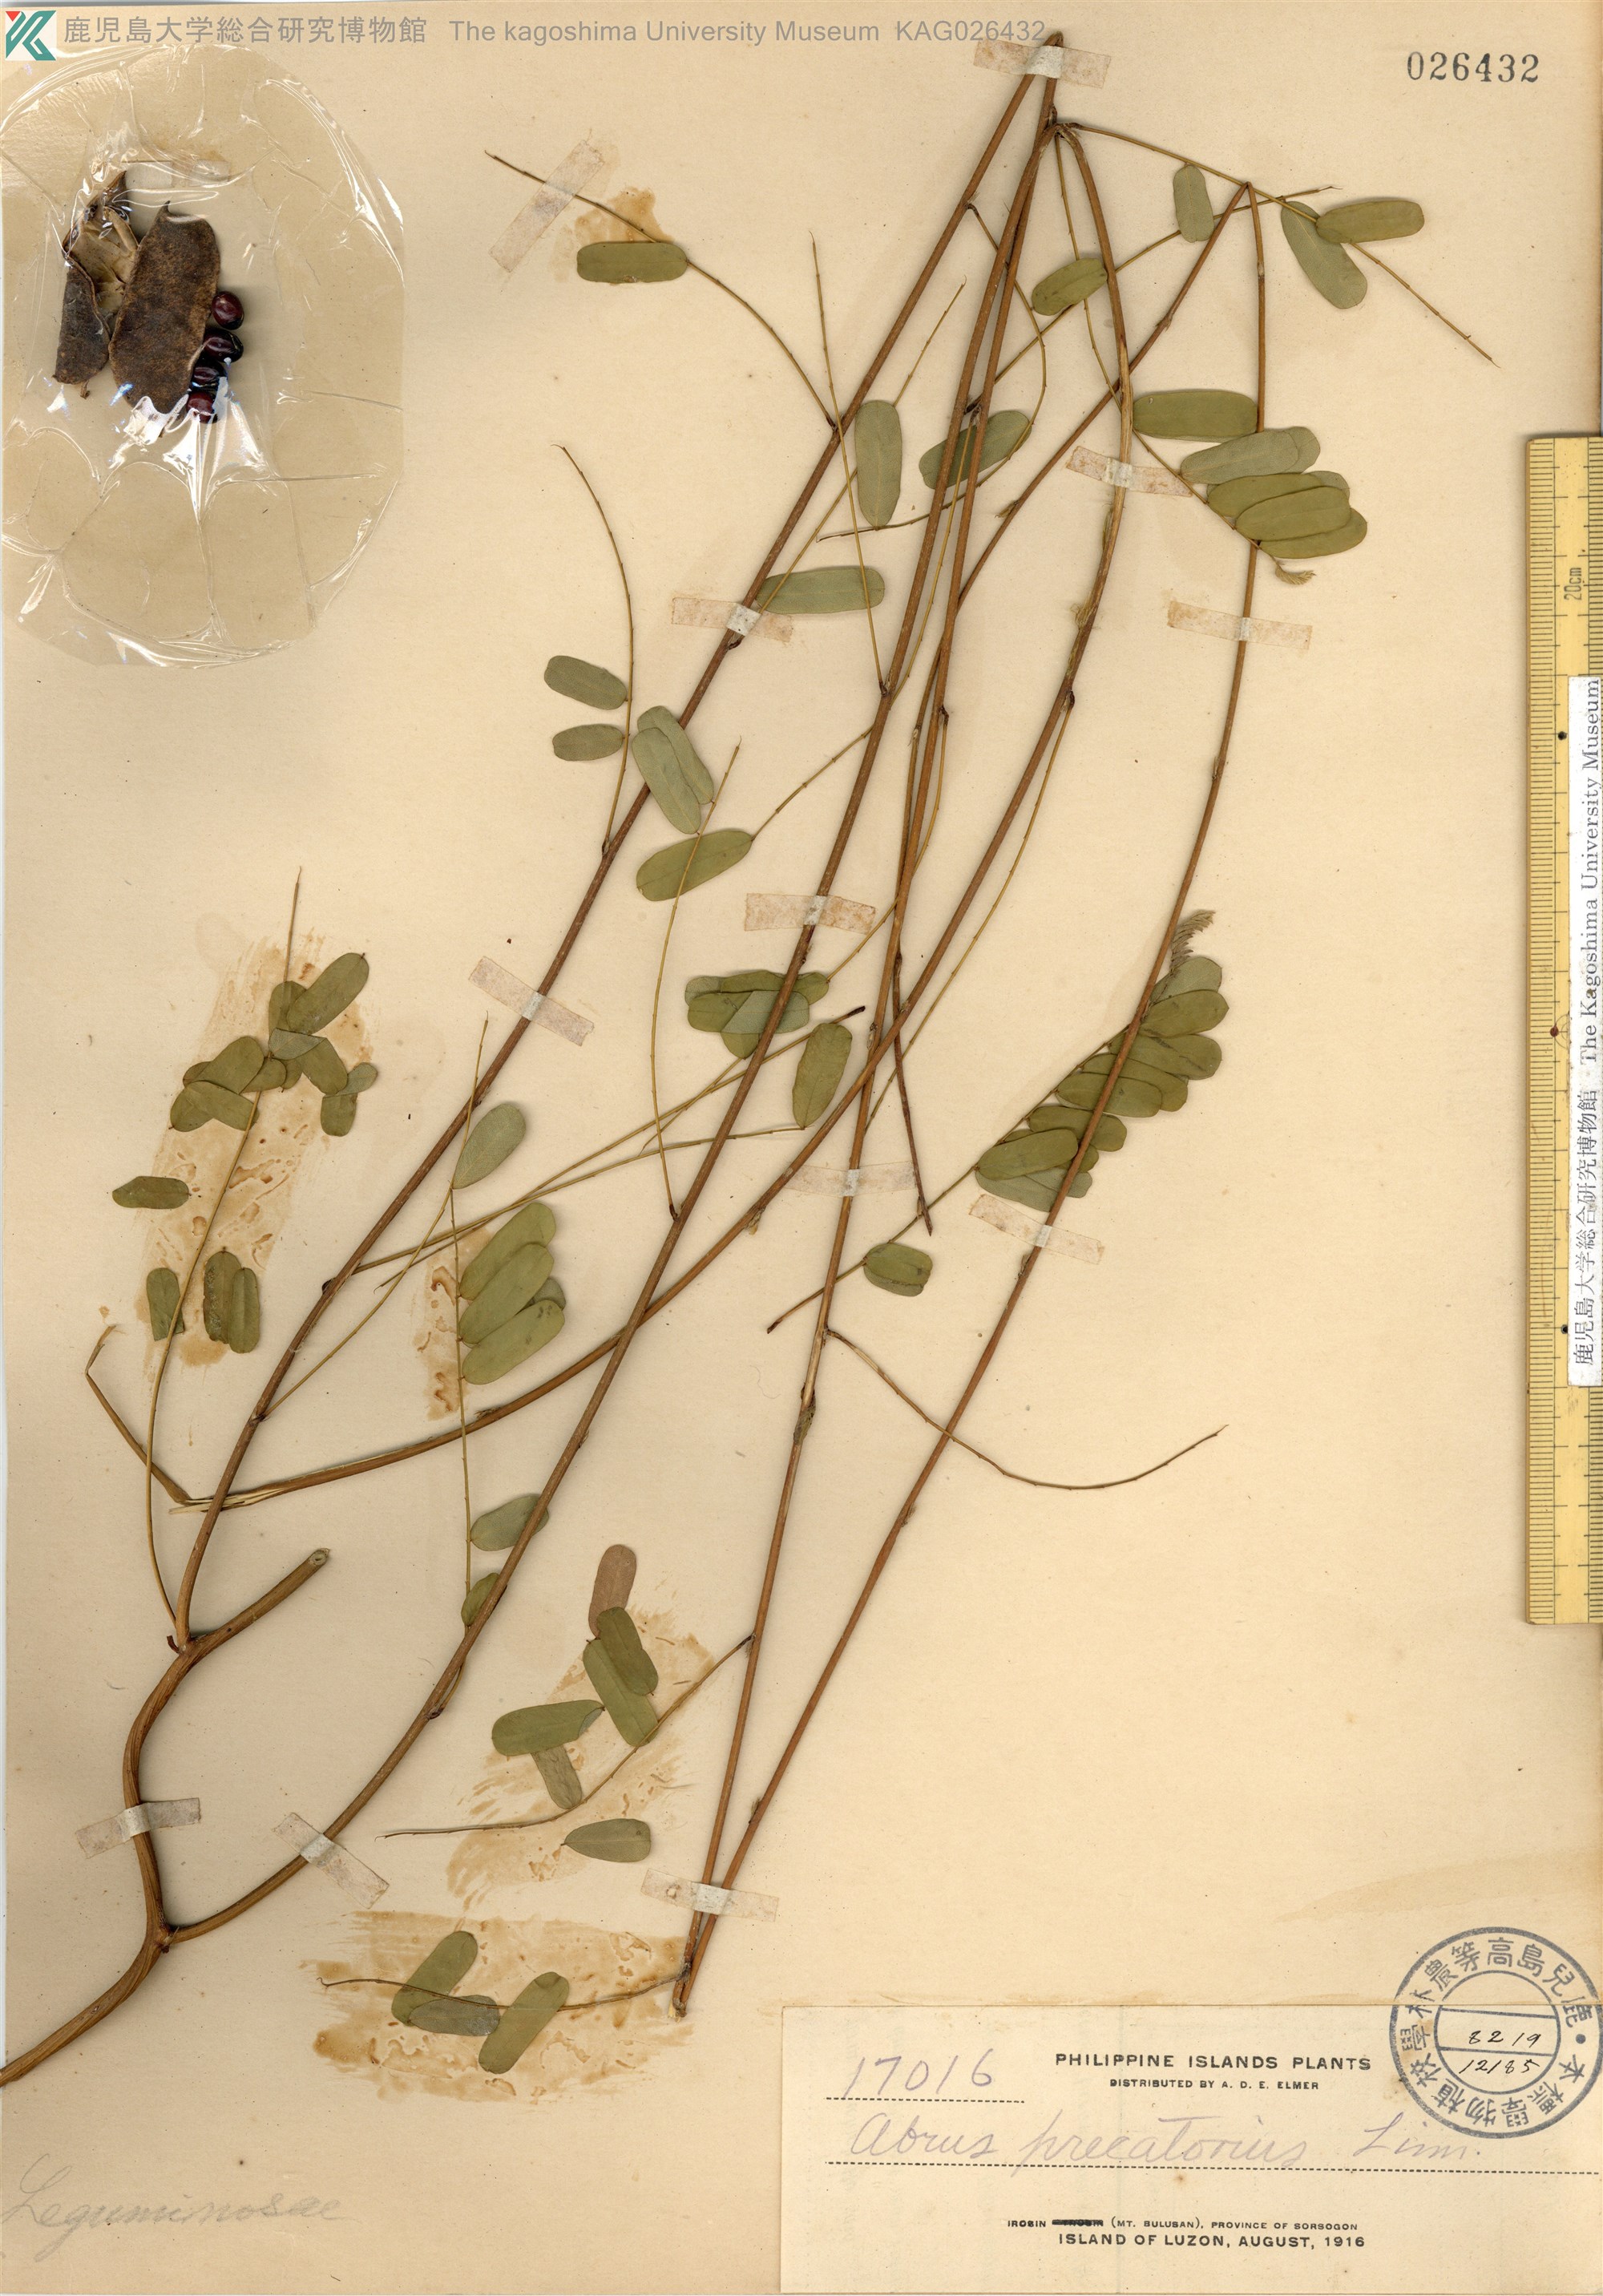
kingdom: Plantae
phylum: Tracheophyta
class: Magnoliopsida
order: Fabales
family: Fabaceae
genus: Abrus
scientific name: Abrus precatorius
